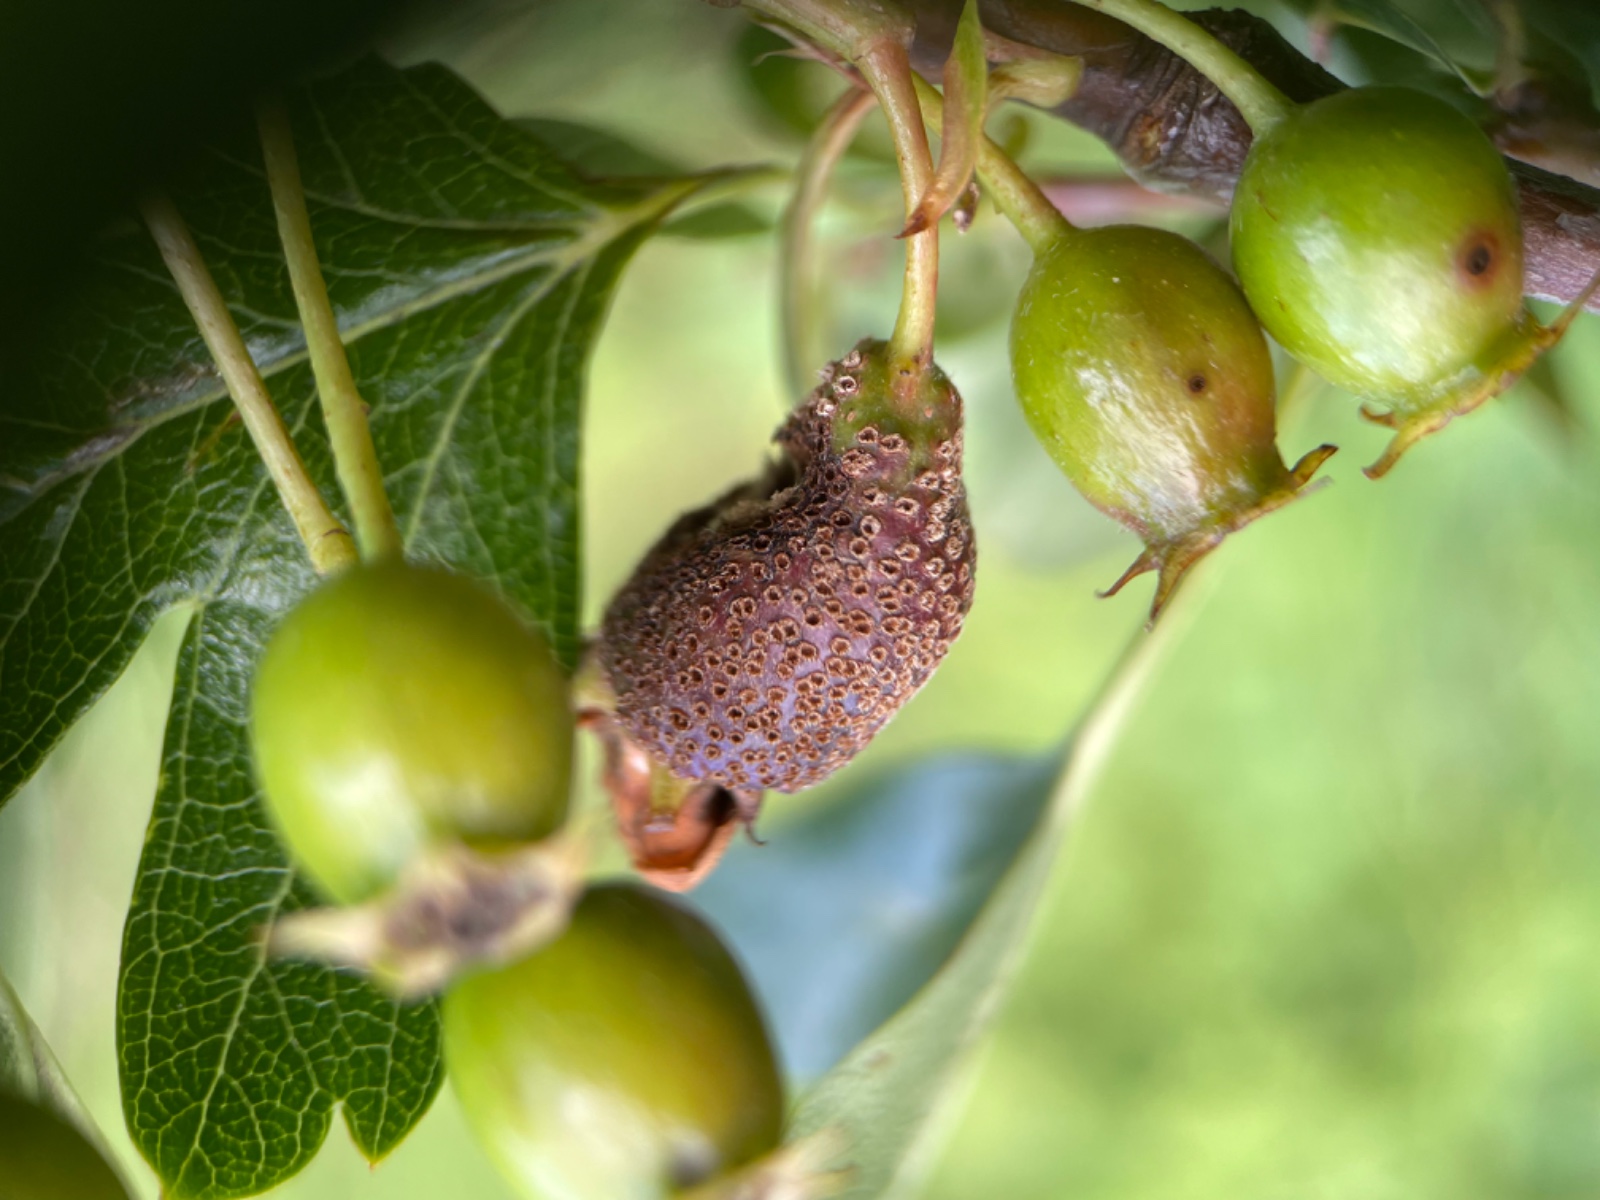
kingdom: Fungi
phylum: Basidiomycota
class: Pucciniomycetes
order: Pucciniales
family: Gymnosporangiaceae
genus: Gymnosporangium
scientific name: Gymnosporangium
